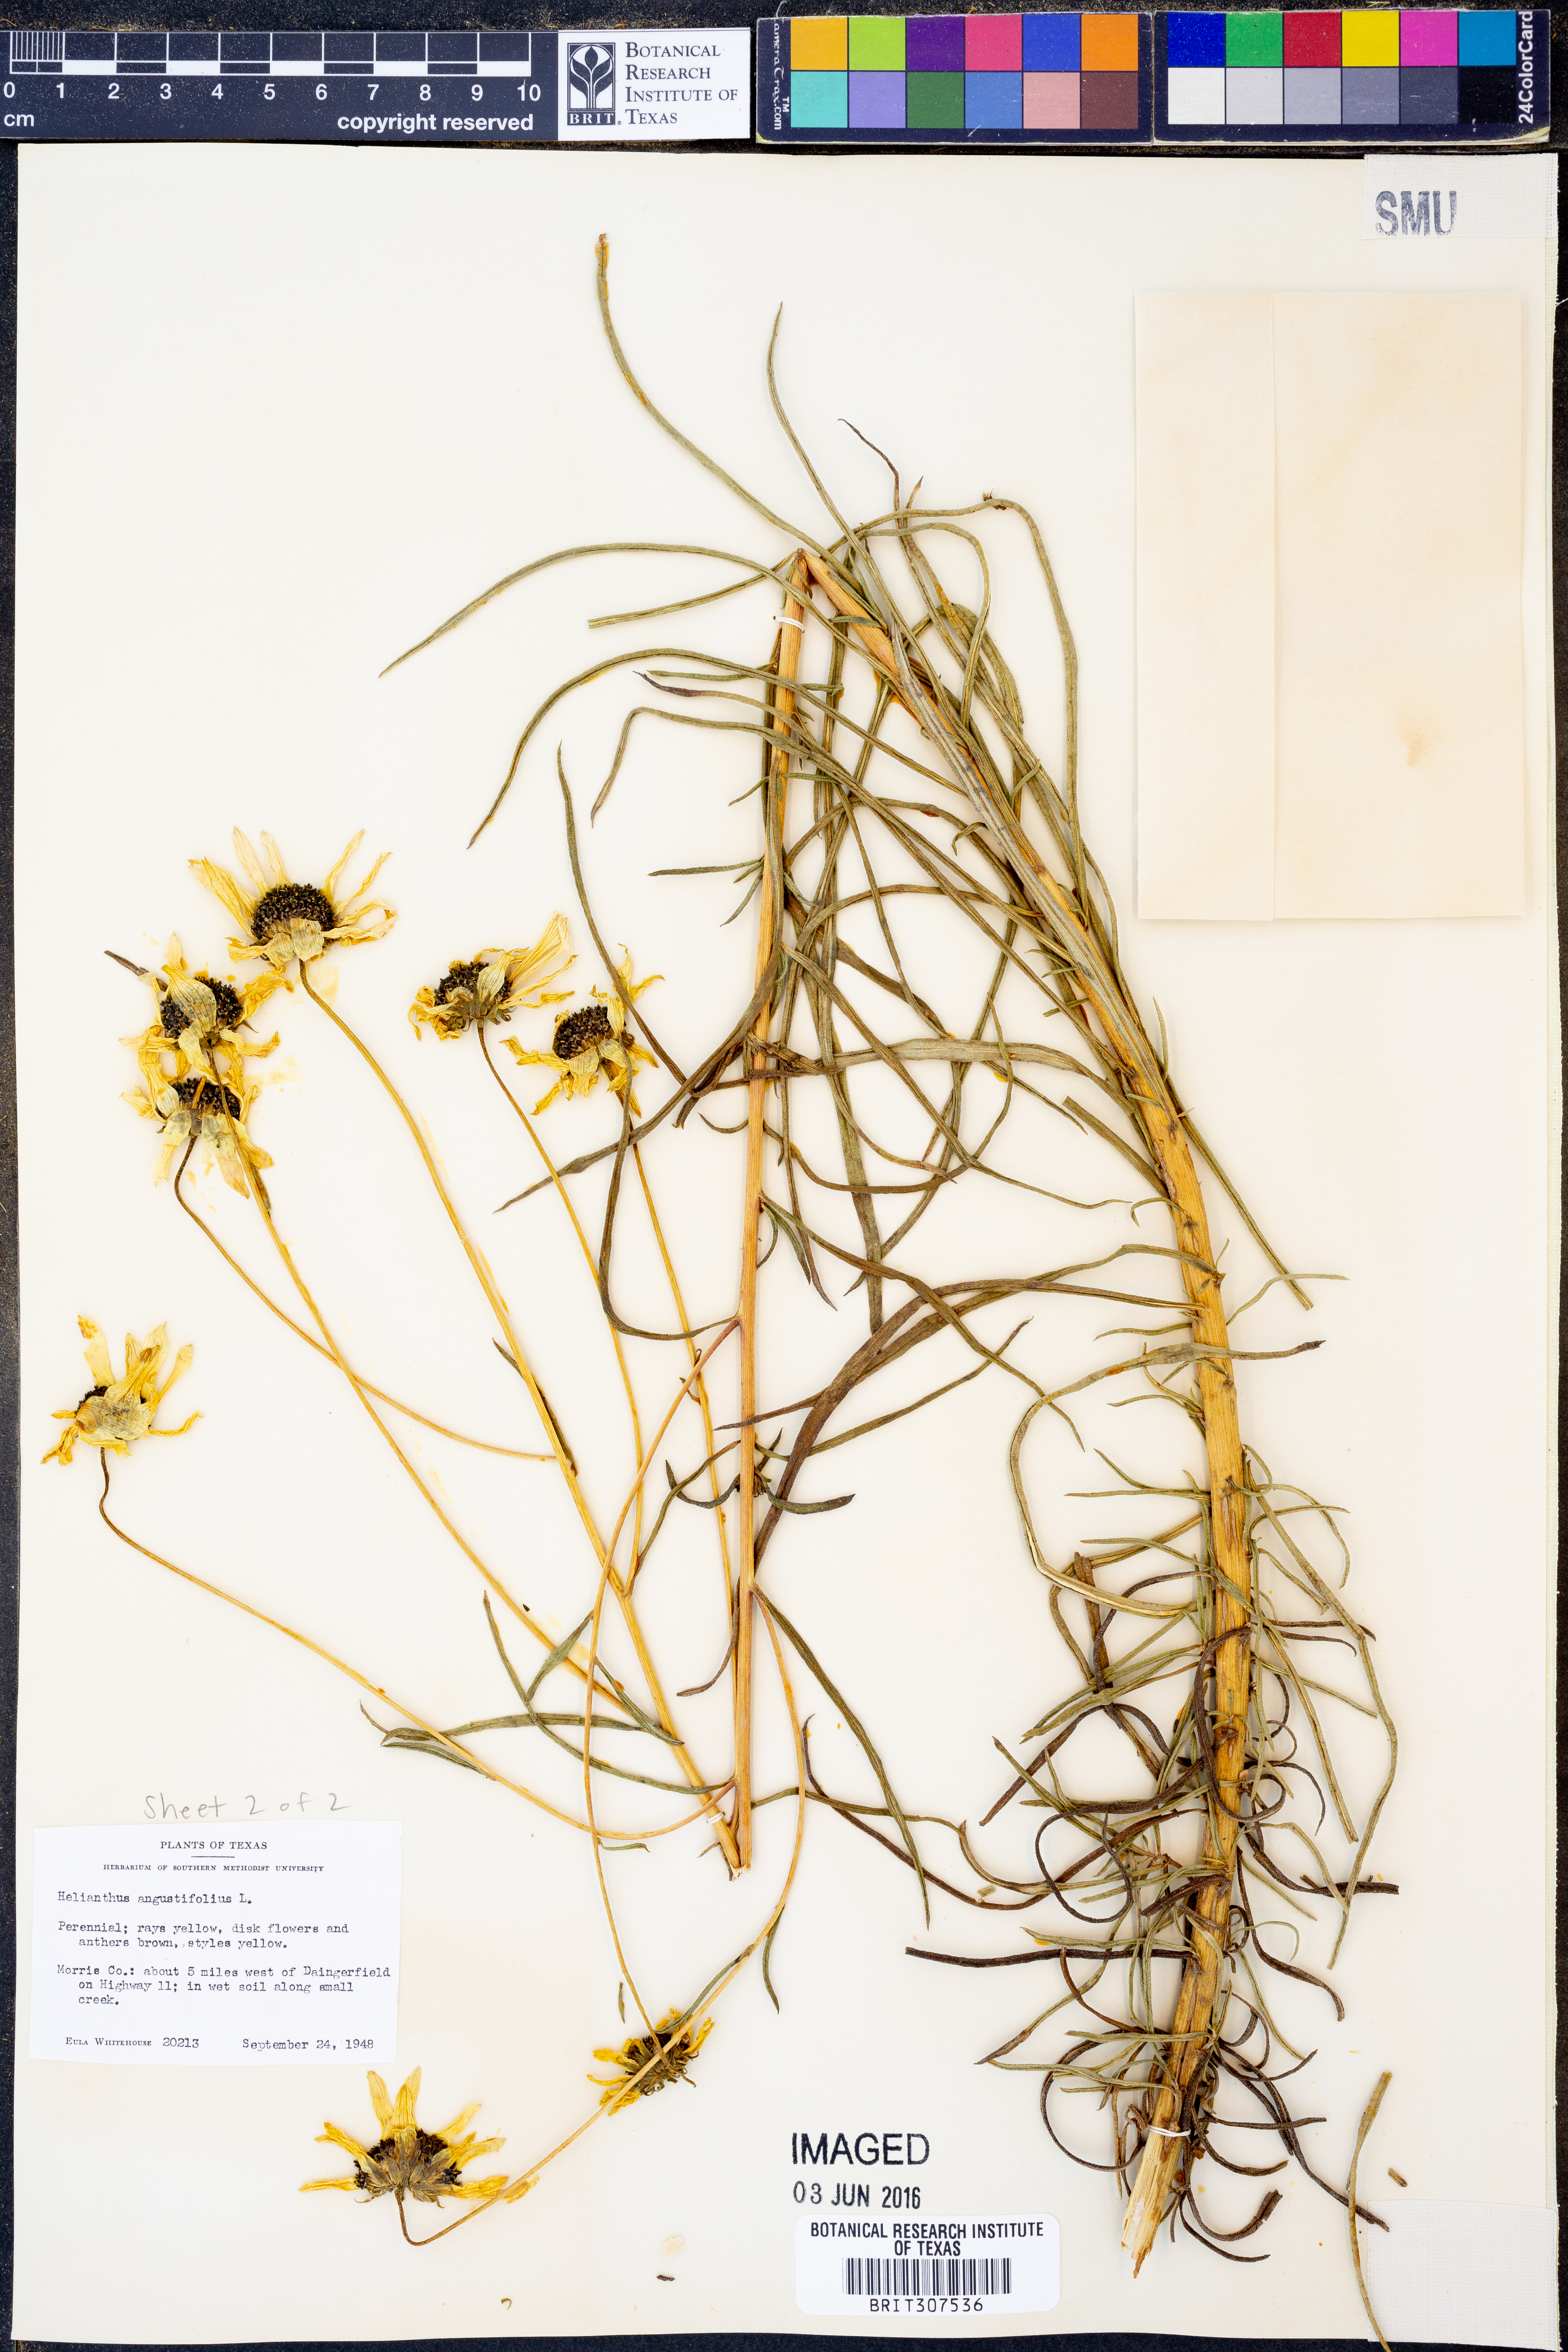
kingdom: Plantae
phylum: Tracheophyta
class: Magnoliopsida
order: Asterales
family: Asteraceae
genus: Helianthus
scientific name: Helianthus angustifolius
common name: Swamp sunflower
